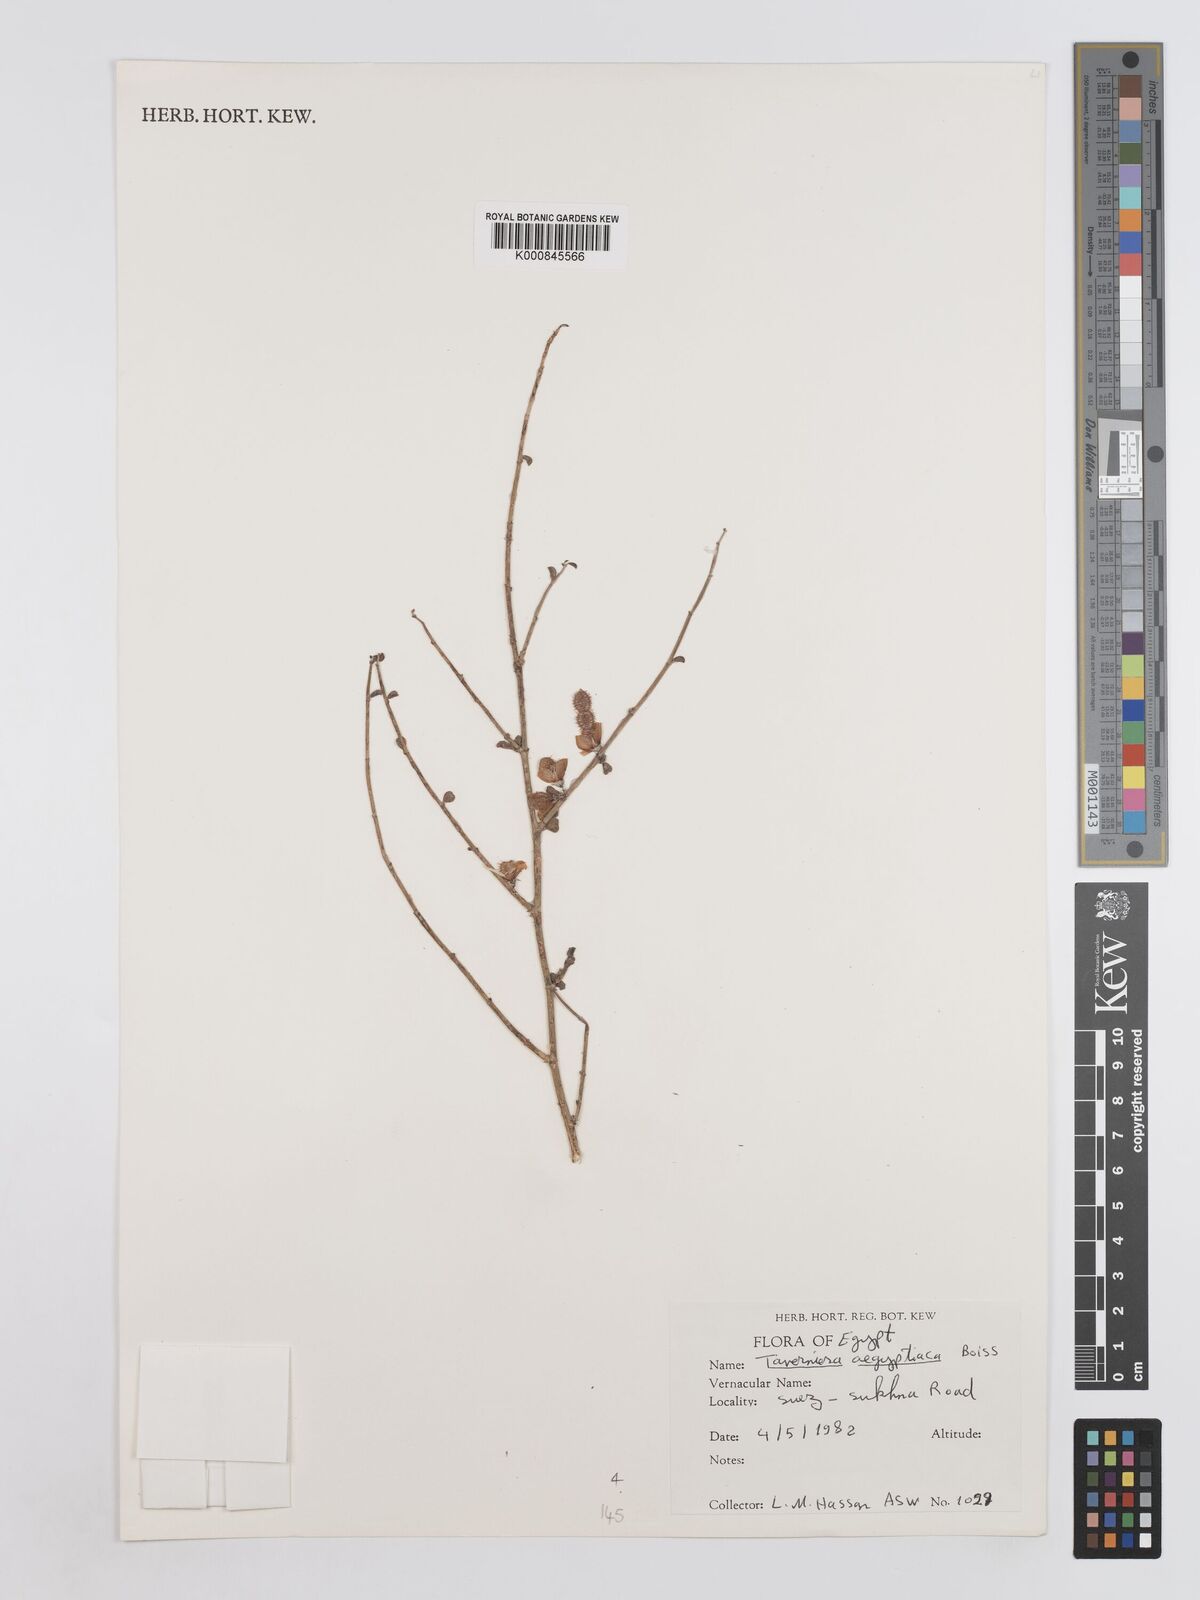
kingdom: Plantae
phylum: Tracheophyta
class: Magnoliopsida
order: Fabales
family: Fabaceae
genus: Taverniera
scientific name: Taverniera aegyptiaca
